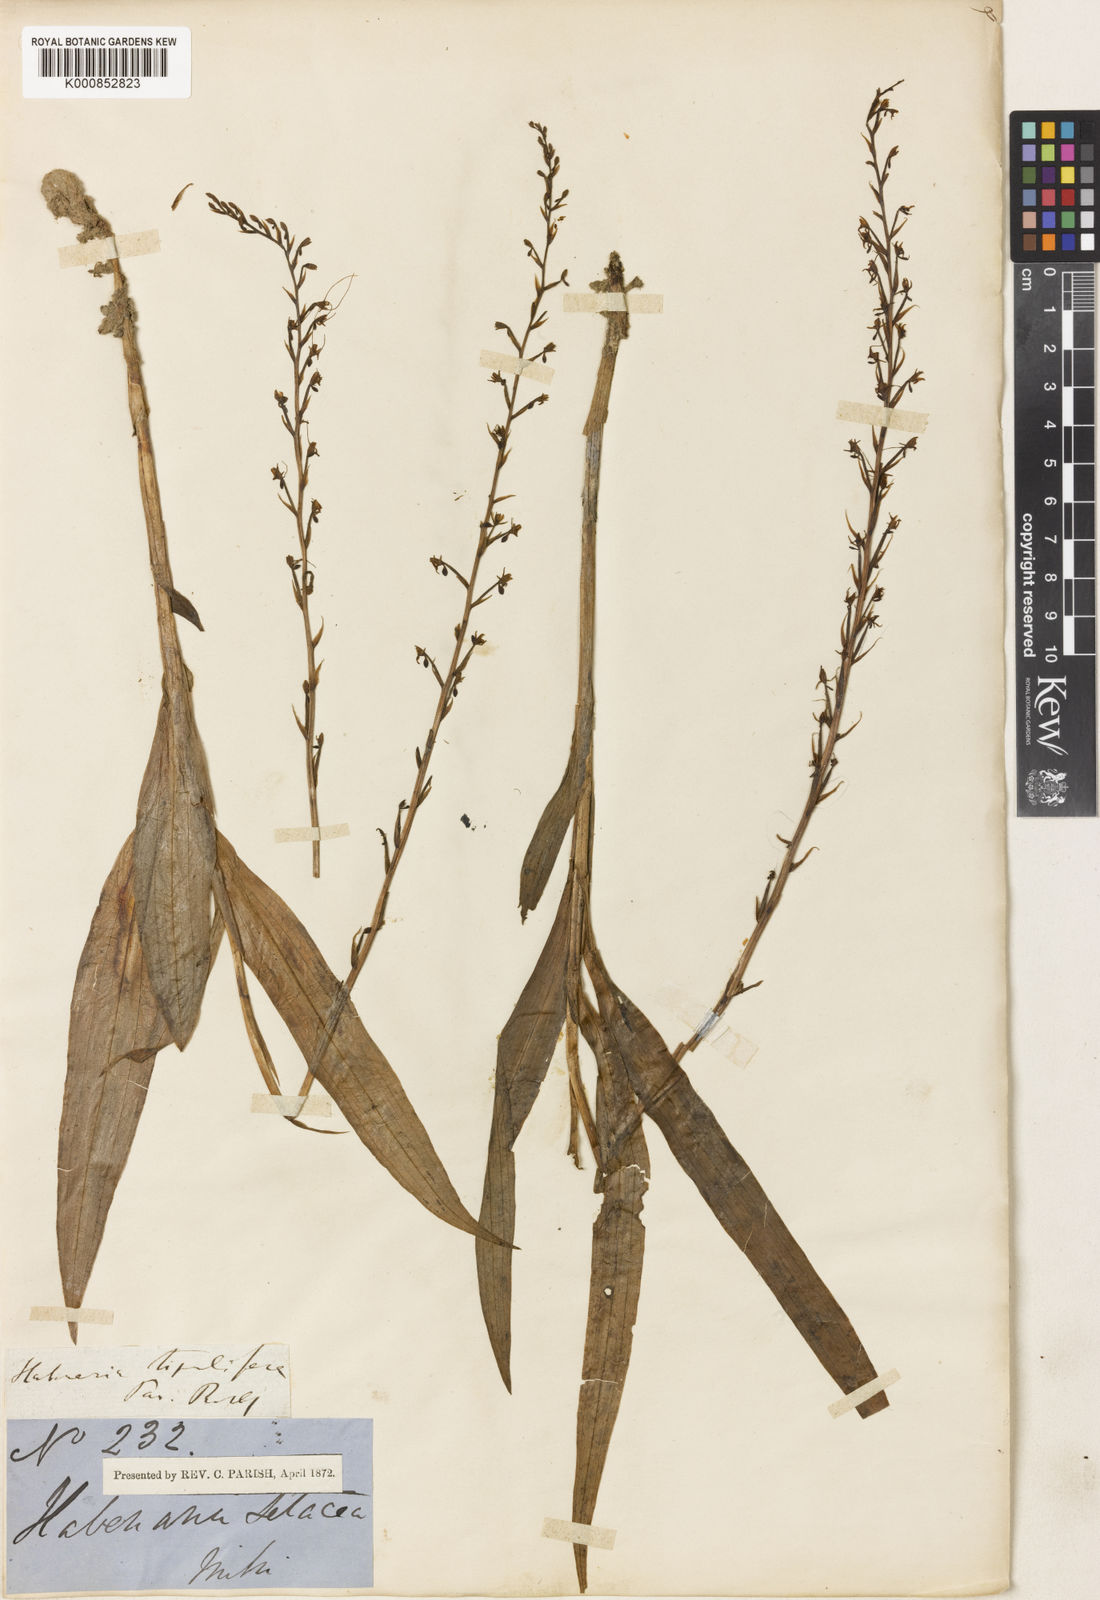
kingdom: Plantae
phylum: Tracheophyta
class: Liliopsida
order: Asparagales
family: Orchidaceae
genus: Peristylus
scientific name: Peristylus
